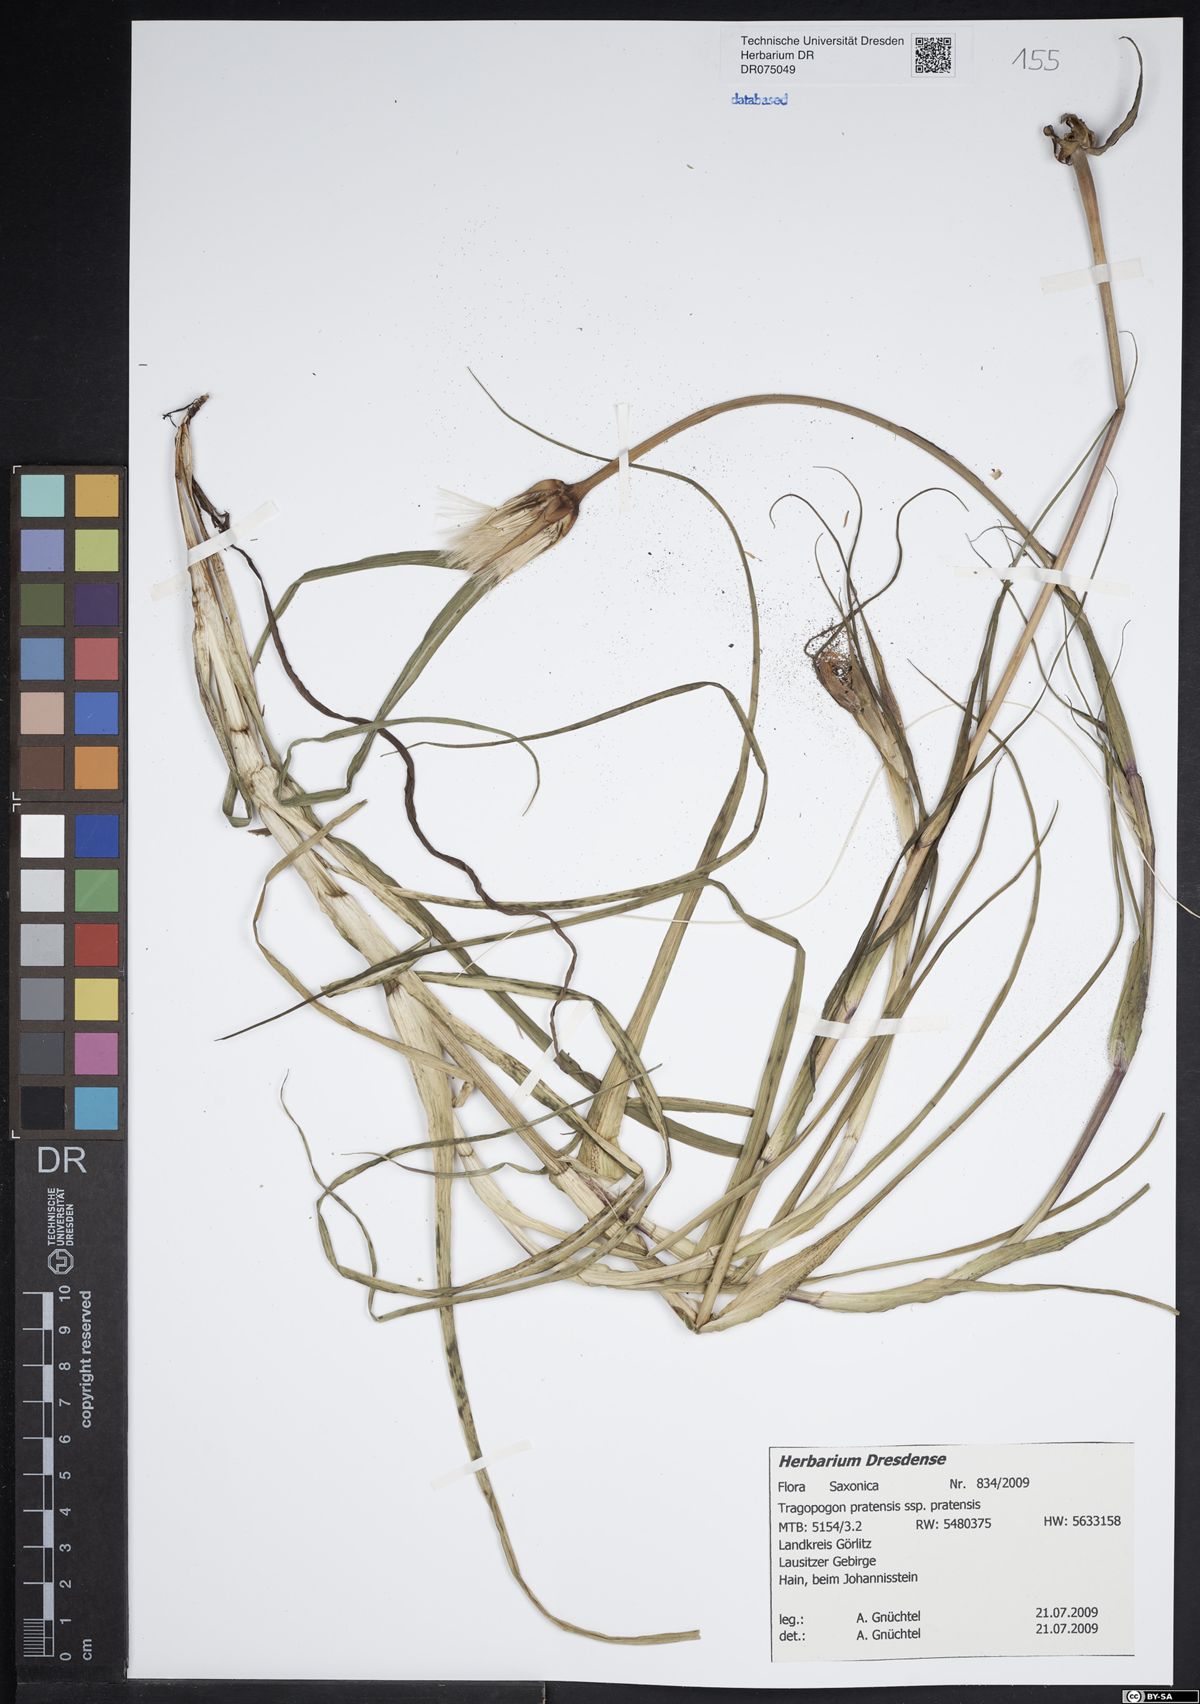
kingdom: Plantae
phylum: Tracheophyta
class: Magnoliopsida
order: Asterales
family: Asteraceae
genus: Tragopogon
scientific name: Tragopogon pratensis
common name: Goat's-beard
